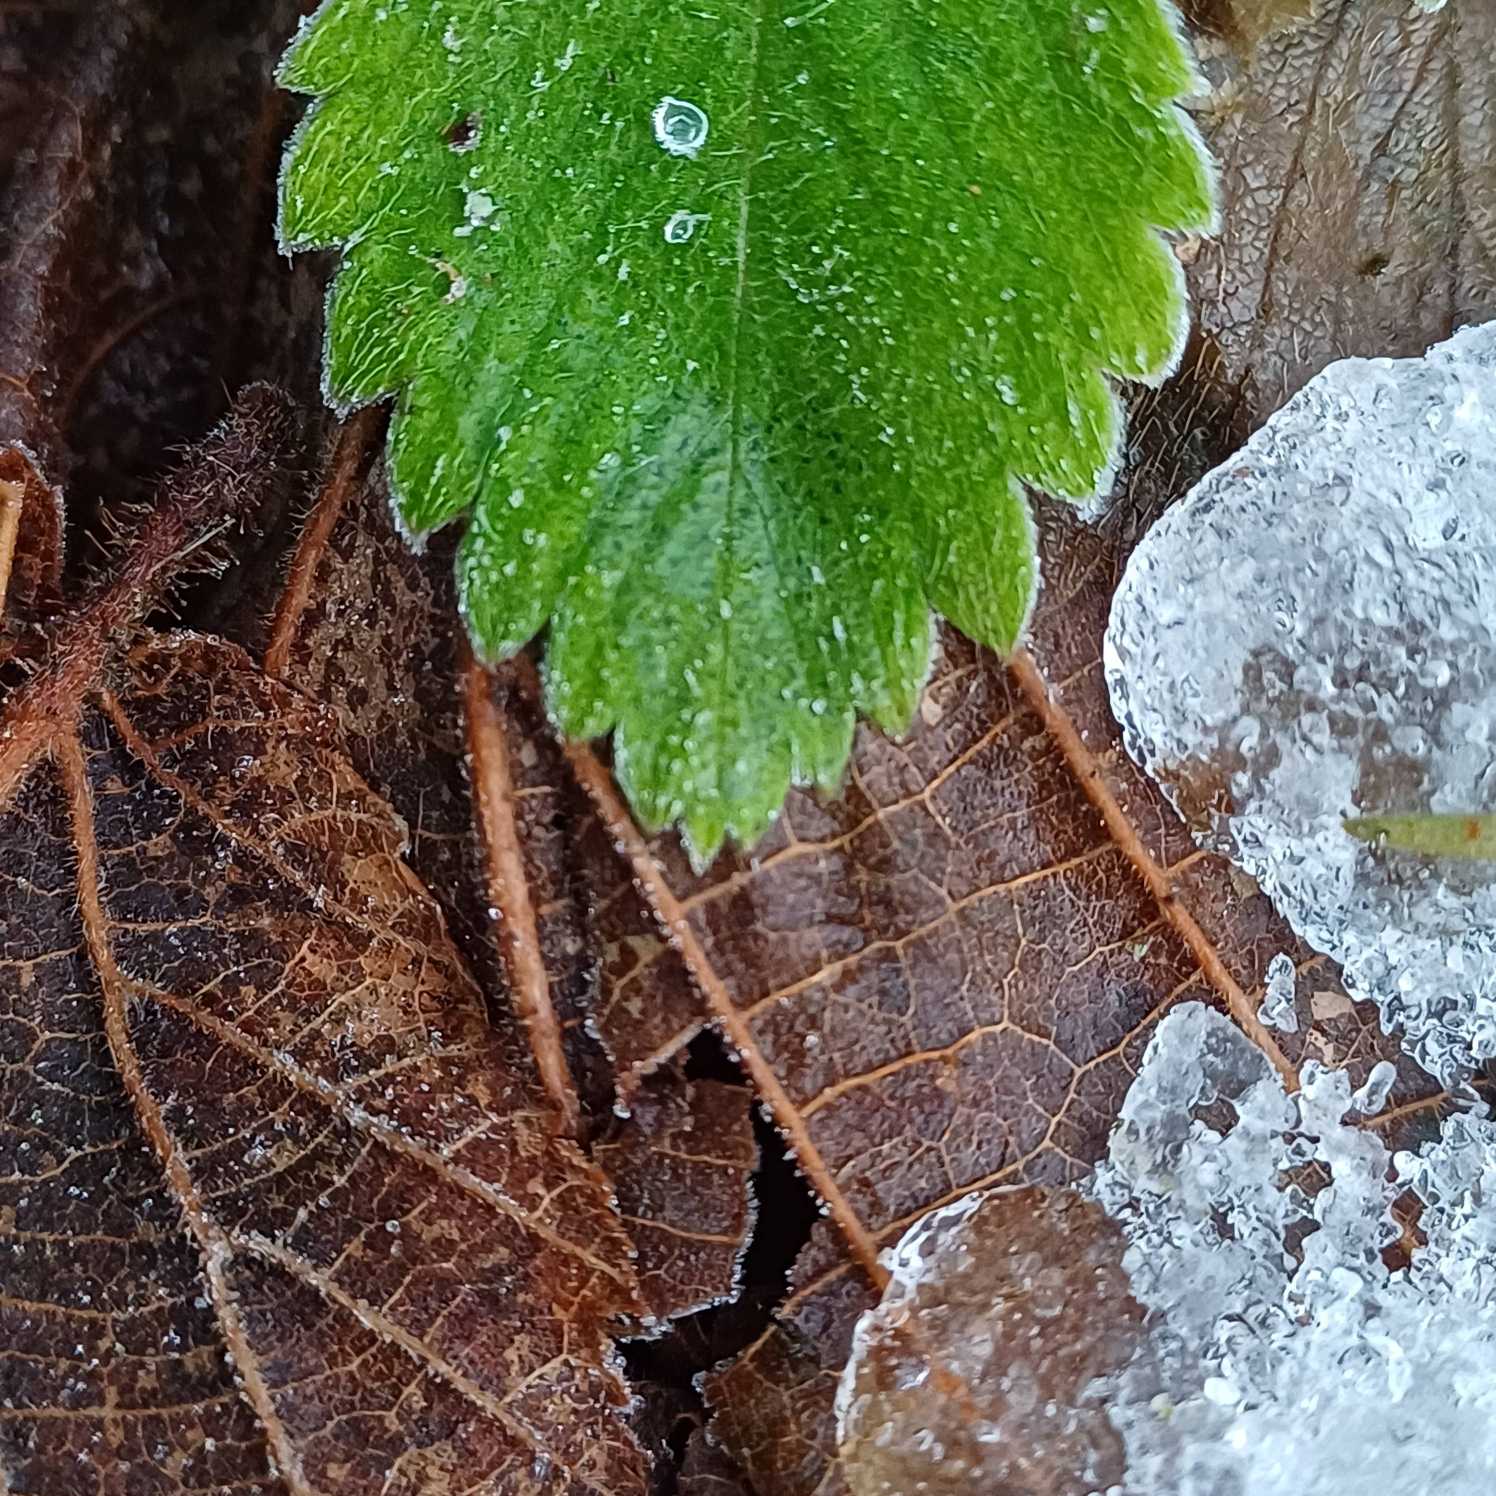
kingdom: Plantae
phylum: Tracheophyta
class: Magnoliopsida
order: Rosales
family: Rosaceae
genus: Fragaria
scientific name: Fragaria vesca
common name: Skov-jordbær
